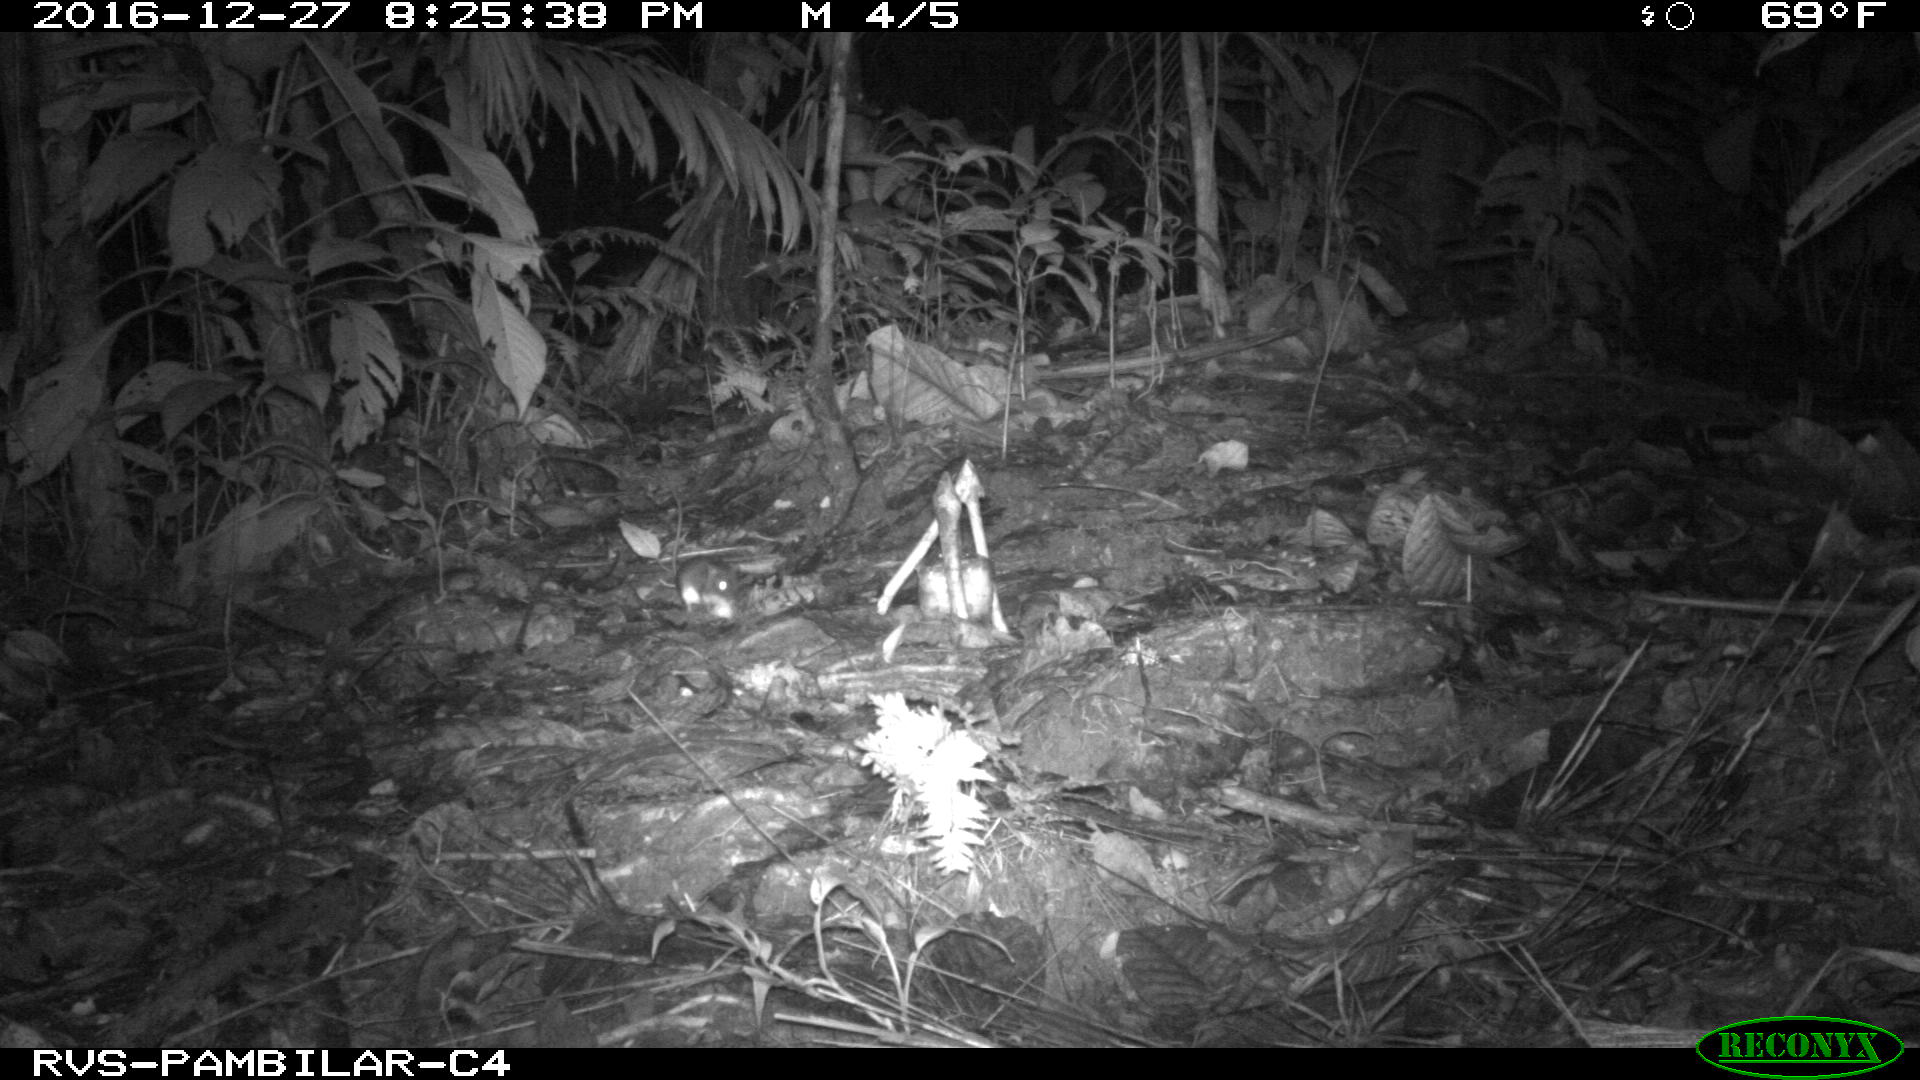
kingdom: Animalia
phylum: Chordata
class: Mammalia
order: Rodentia
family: Echimyidae
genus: Proechimys
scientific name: Proechimys
